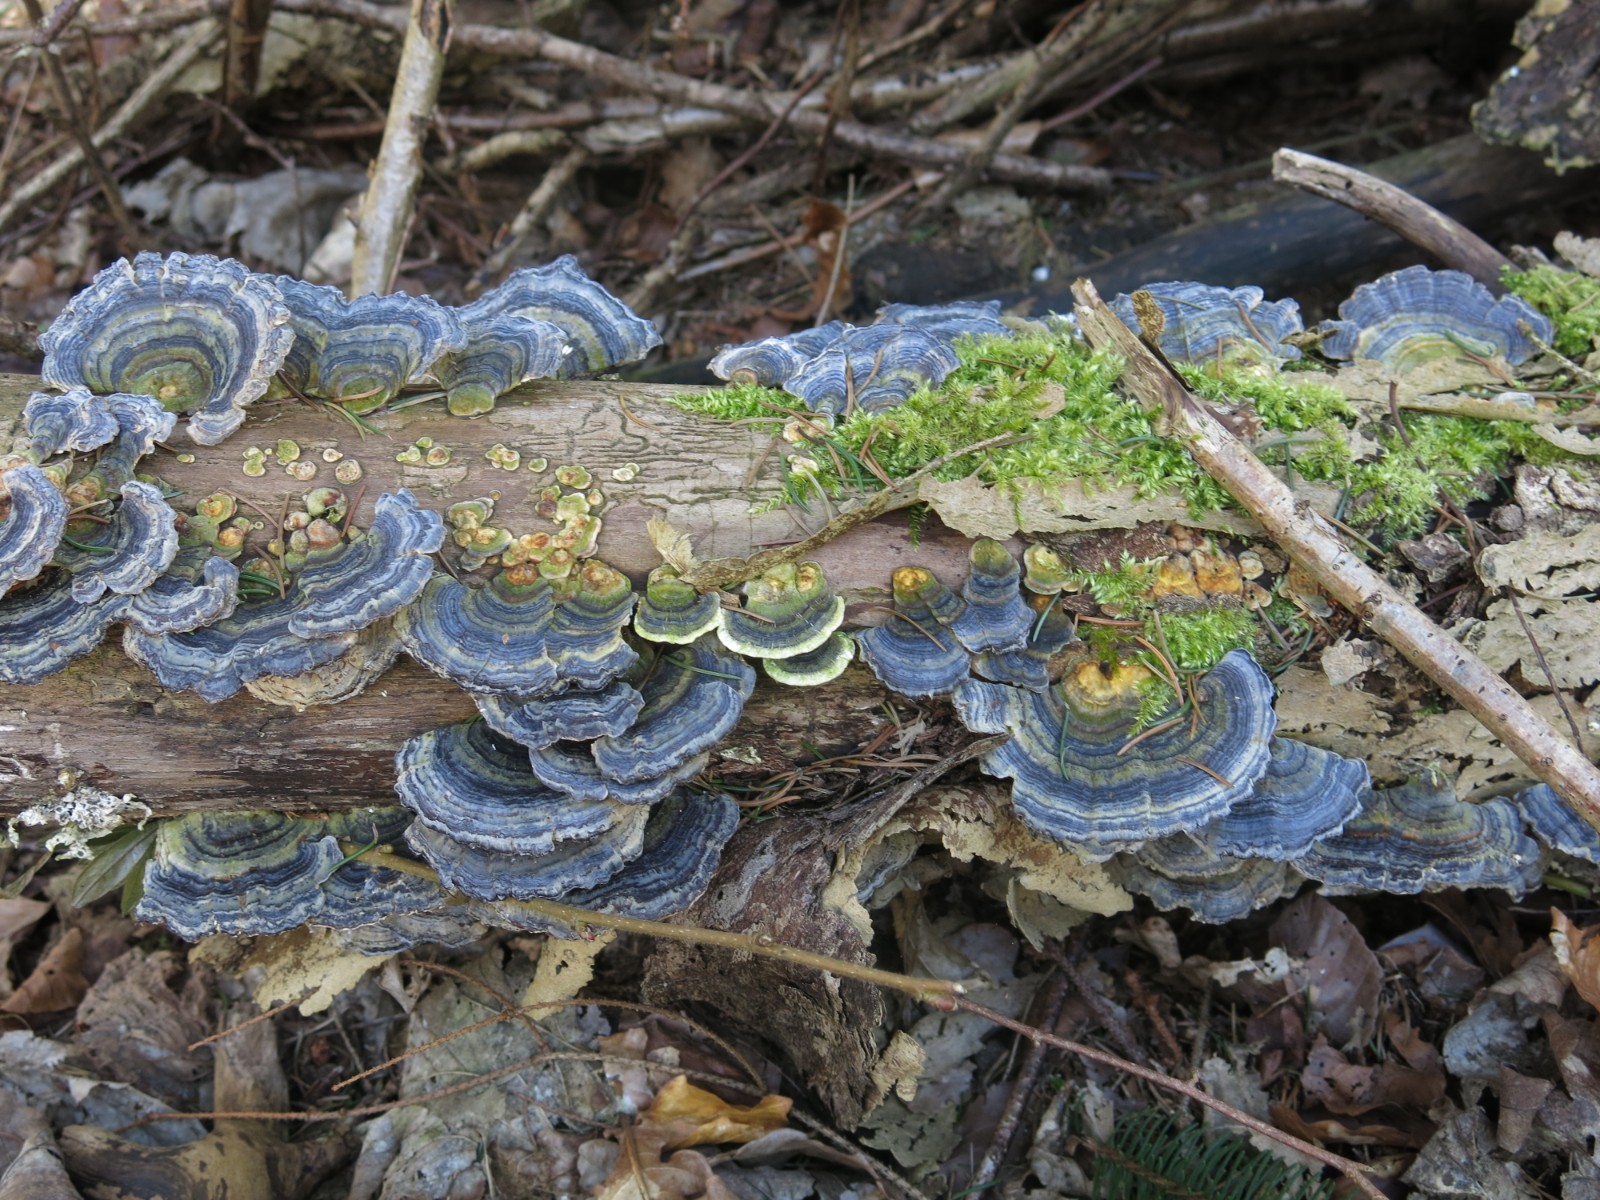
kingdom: Fungi
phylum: Basidiomycota
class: Agaricomycetes
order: Polyporales
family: Polyporaceae
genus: Trametes
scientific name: Trametes versicolor
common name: broget læderporesvamp
